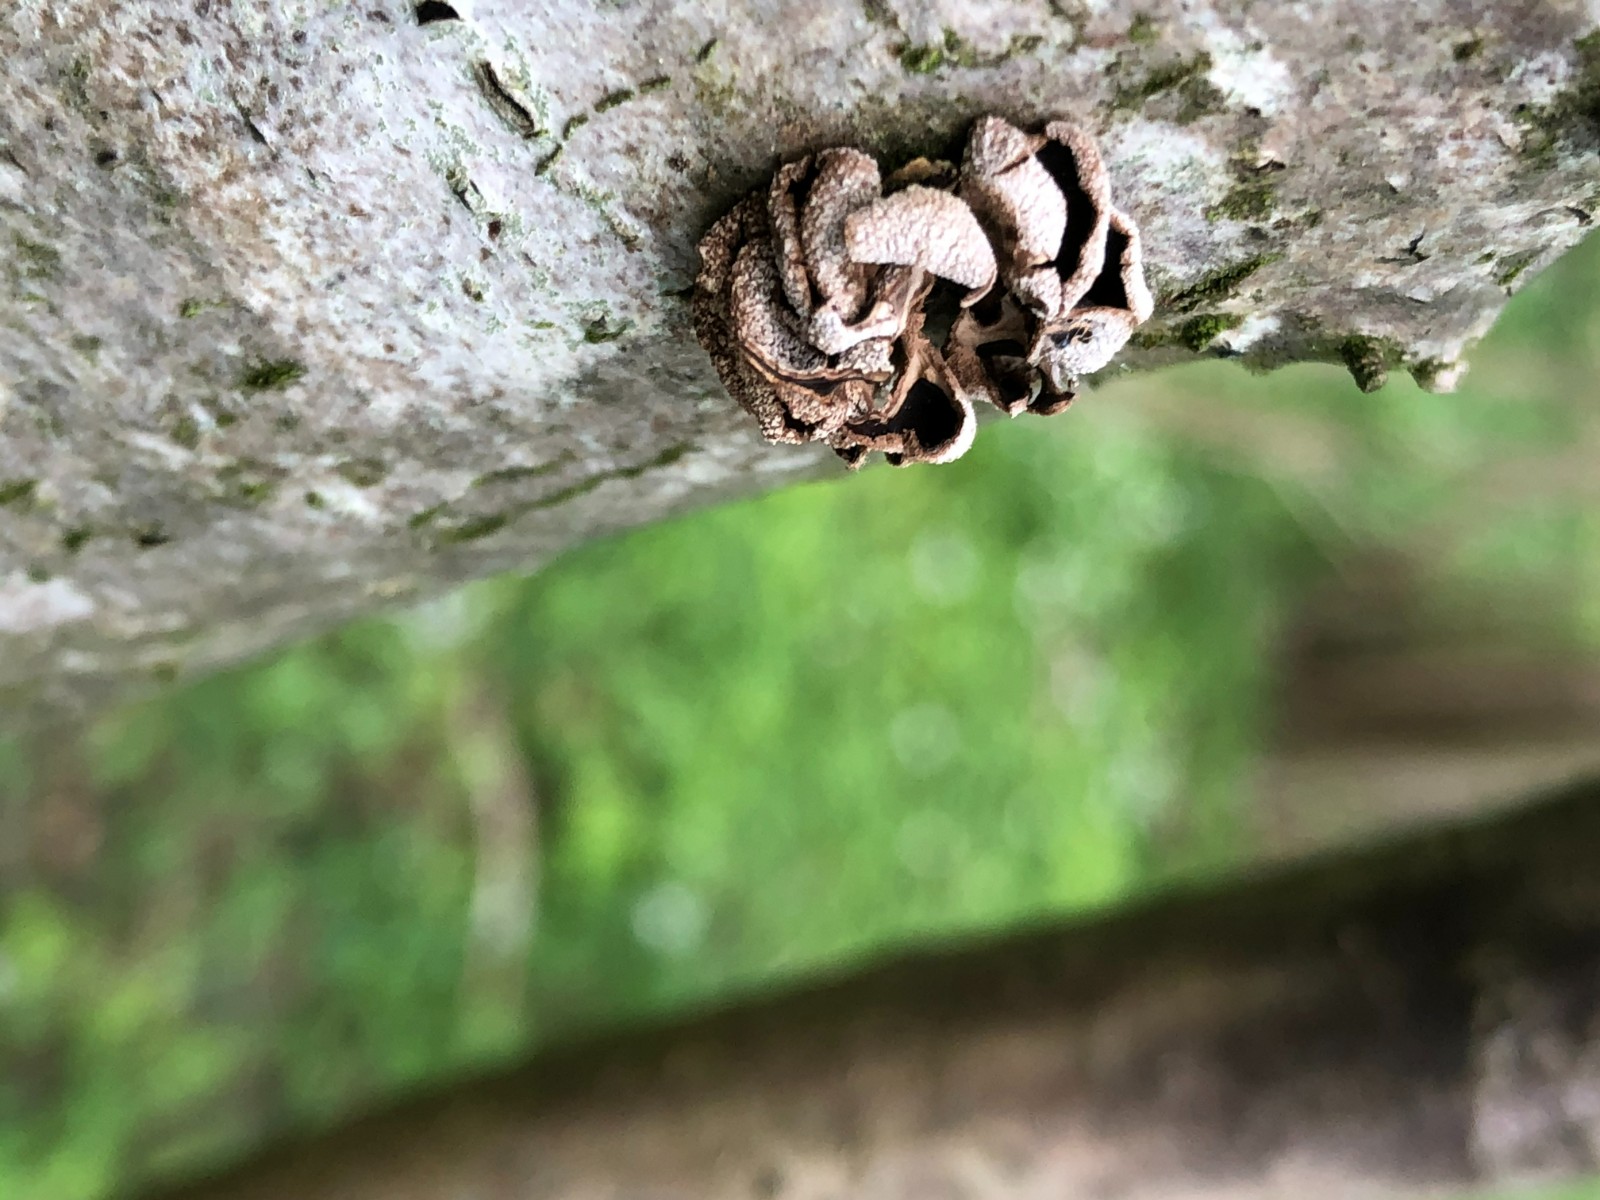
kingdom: Fungi
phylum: Ascomycota
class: Leotiomycetes
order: Helotiales
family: Cenangiaceae
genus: Encoelia
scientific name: Encoelia furfuracea
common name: hassel-læderskive
